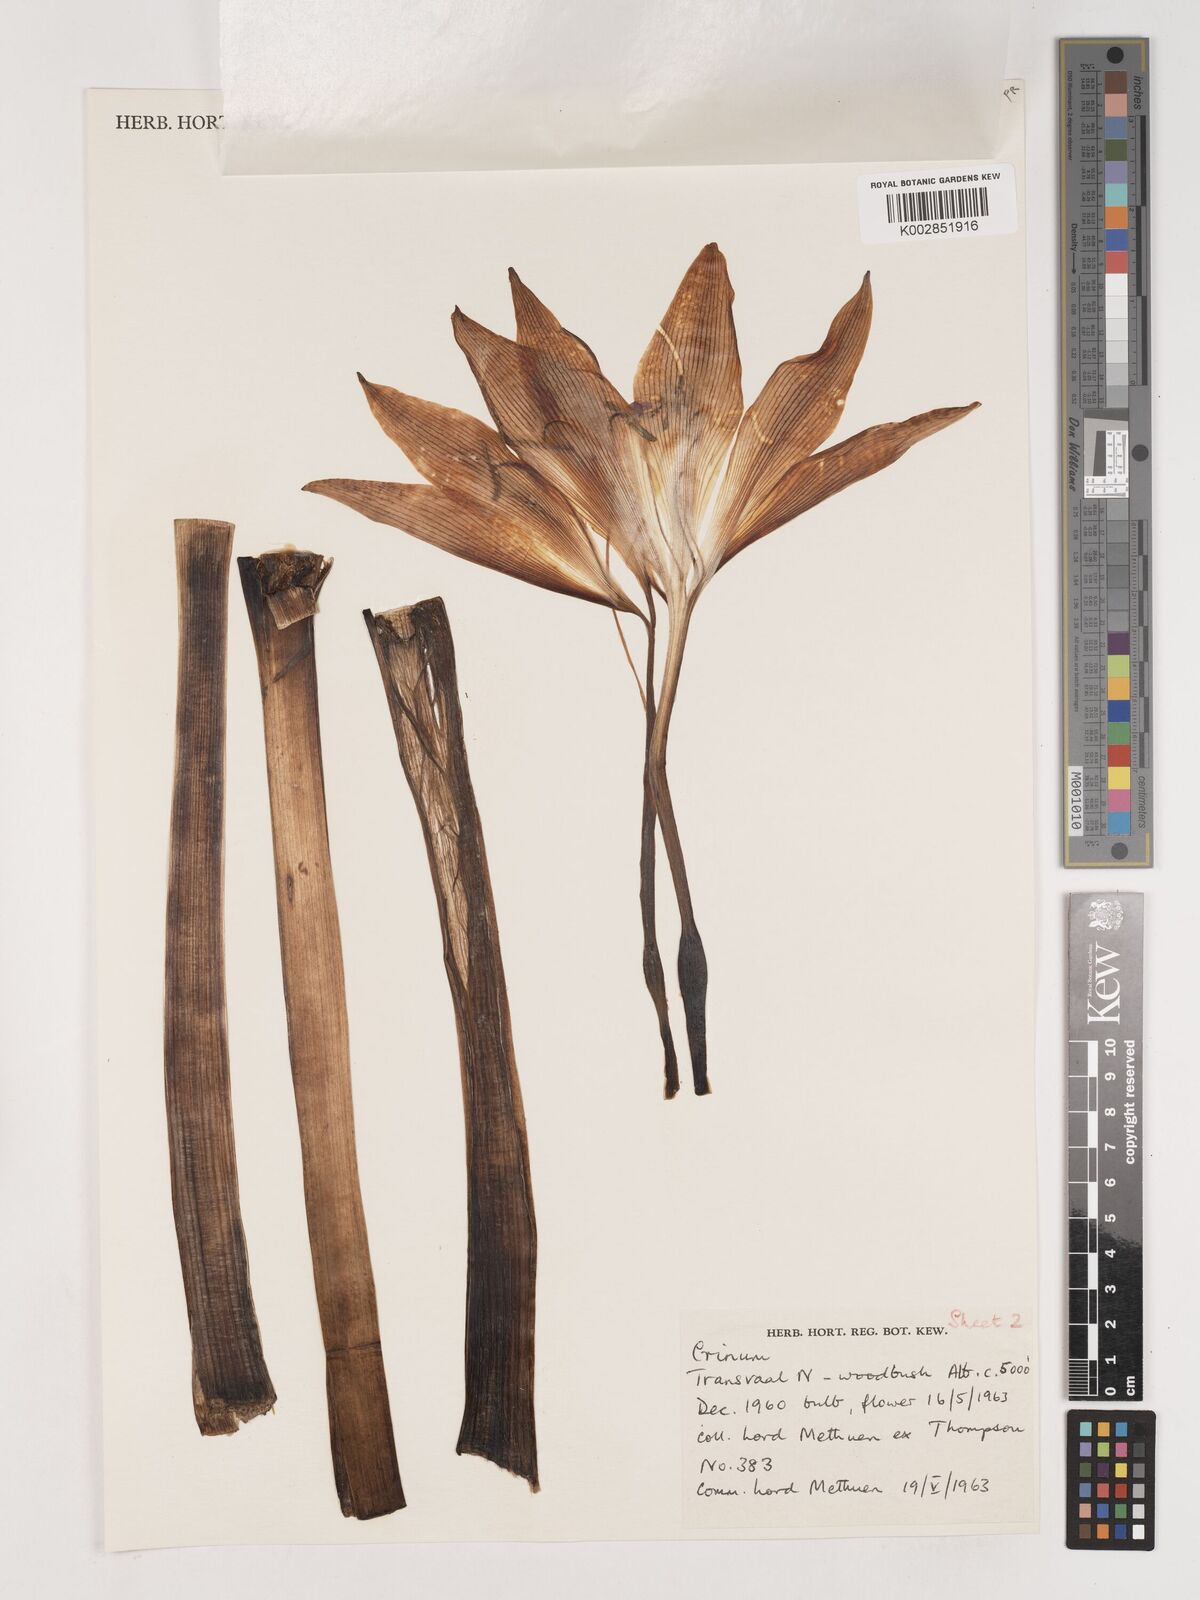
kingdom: Plantae
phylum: Tracheophyta
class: Liliopsida
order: Asparagales
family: Amaryllidaceae
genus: Crinum
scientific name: Crinum
